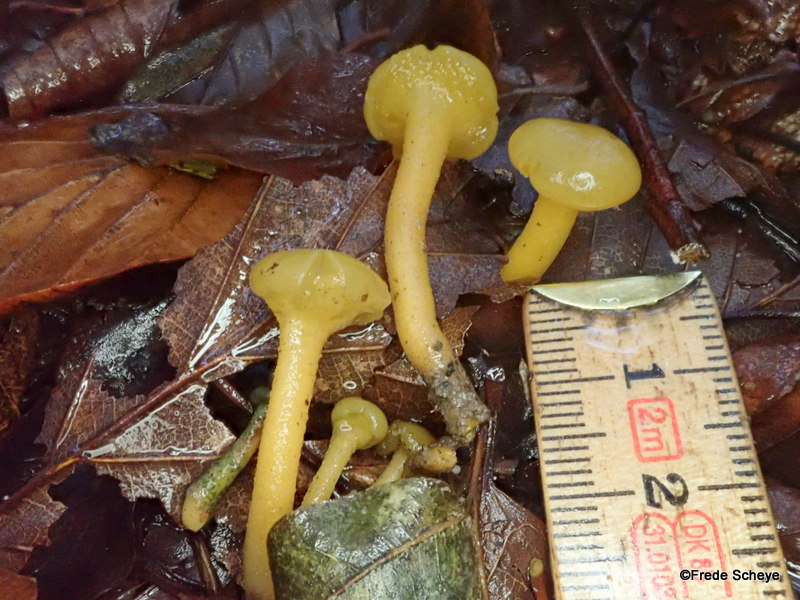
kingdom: Fungi
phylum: Ascomycota
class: Leotiomycetes
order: Leotiales
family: Leotiaceae
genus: Leotia
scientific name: Leotia lubrica
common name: ravsvamp
